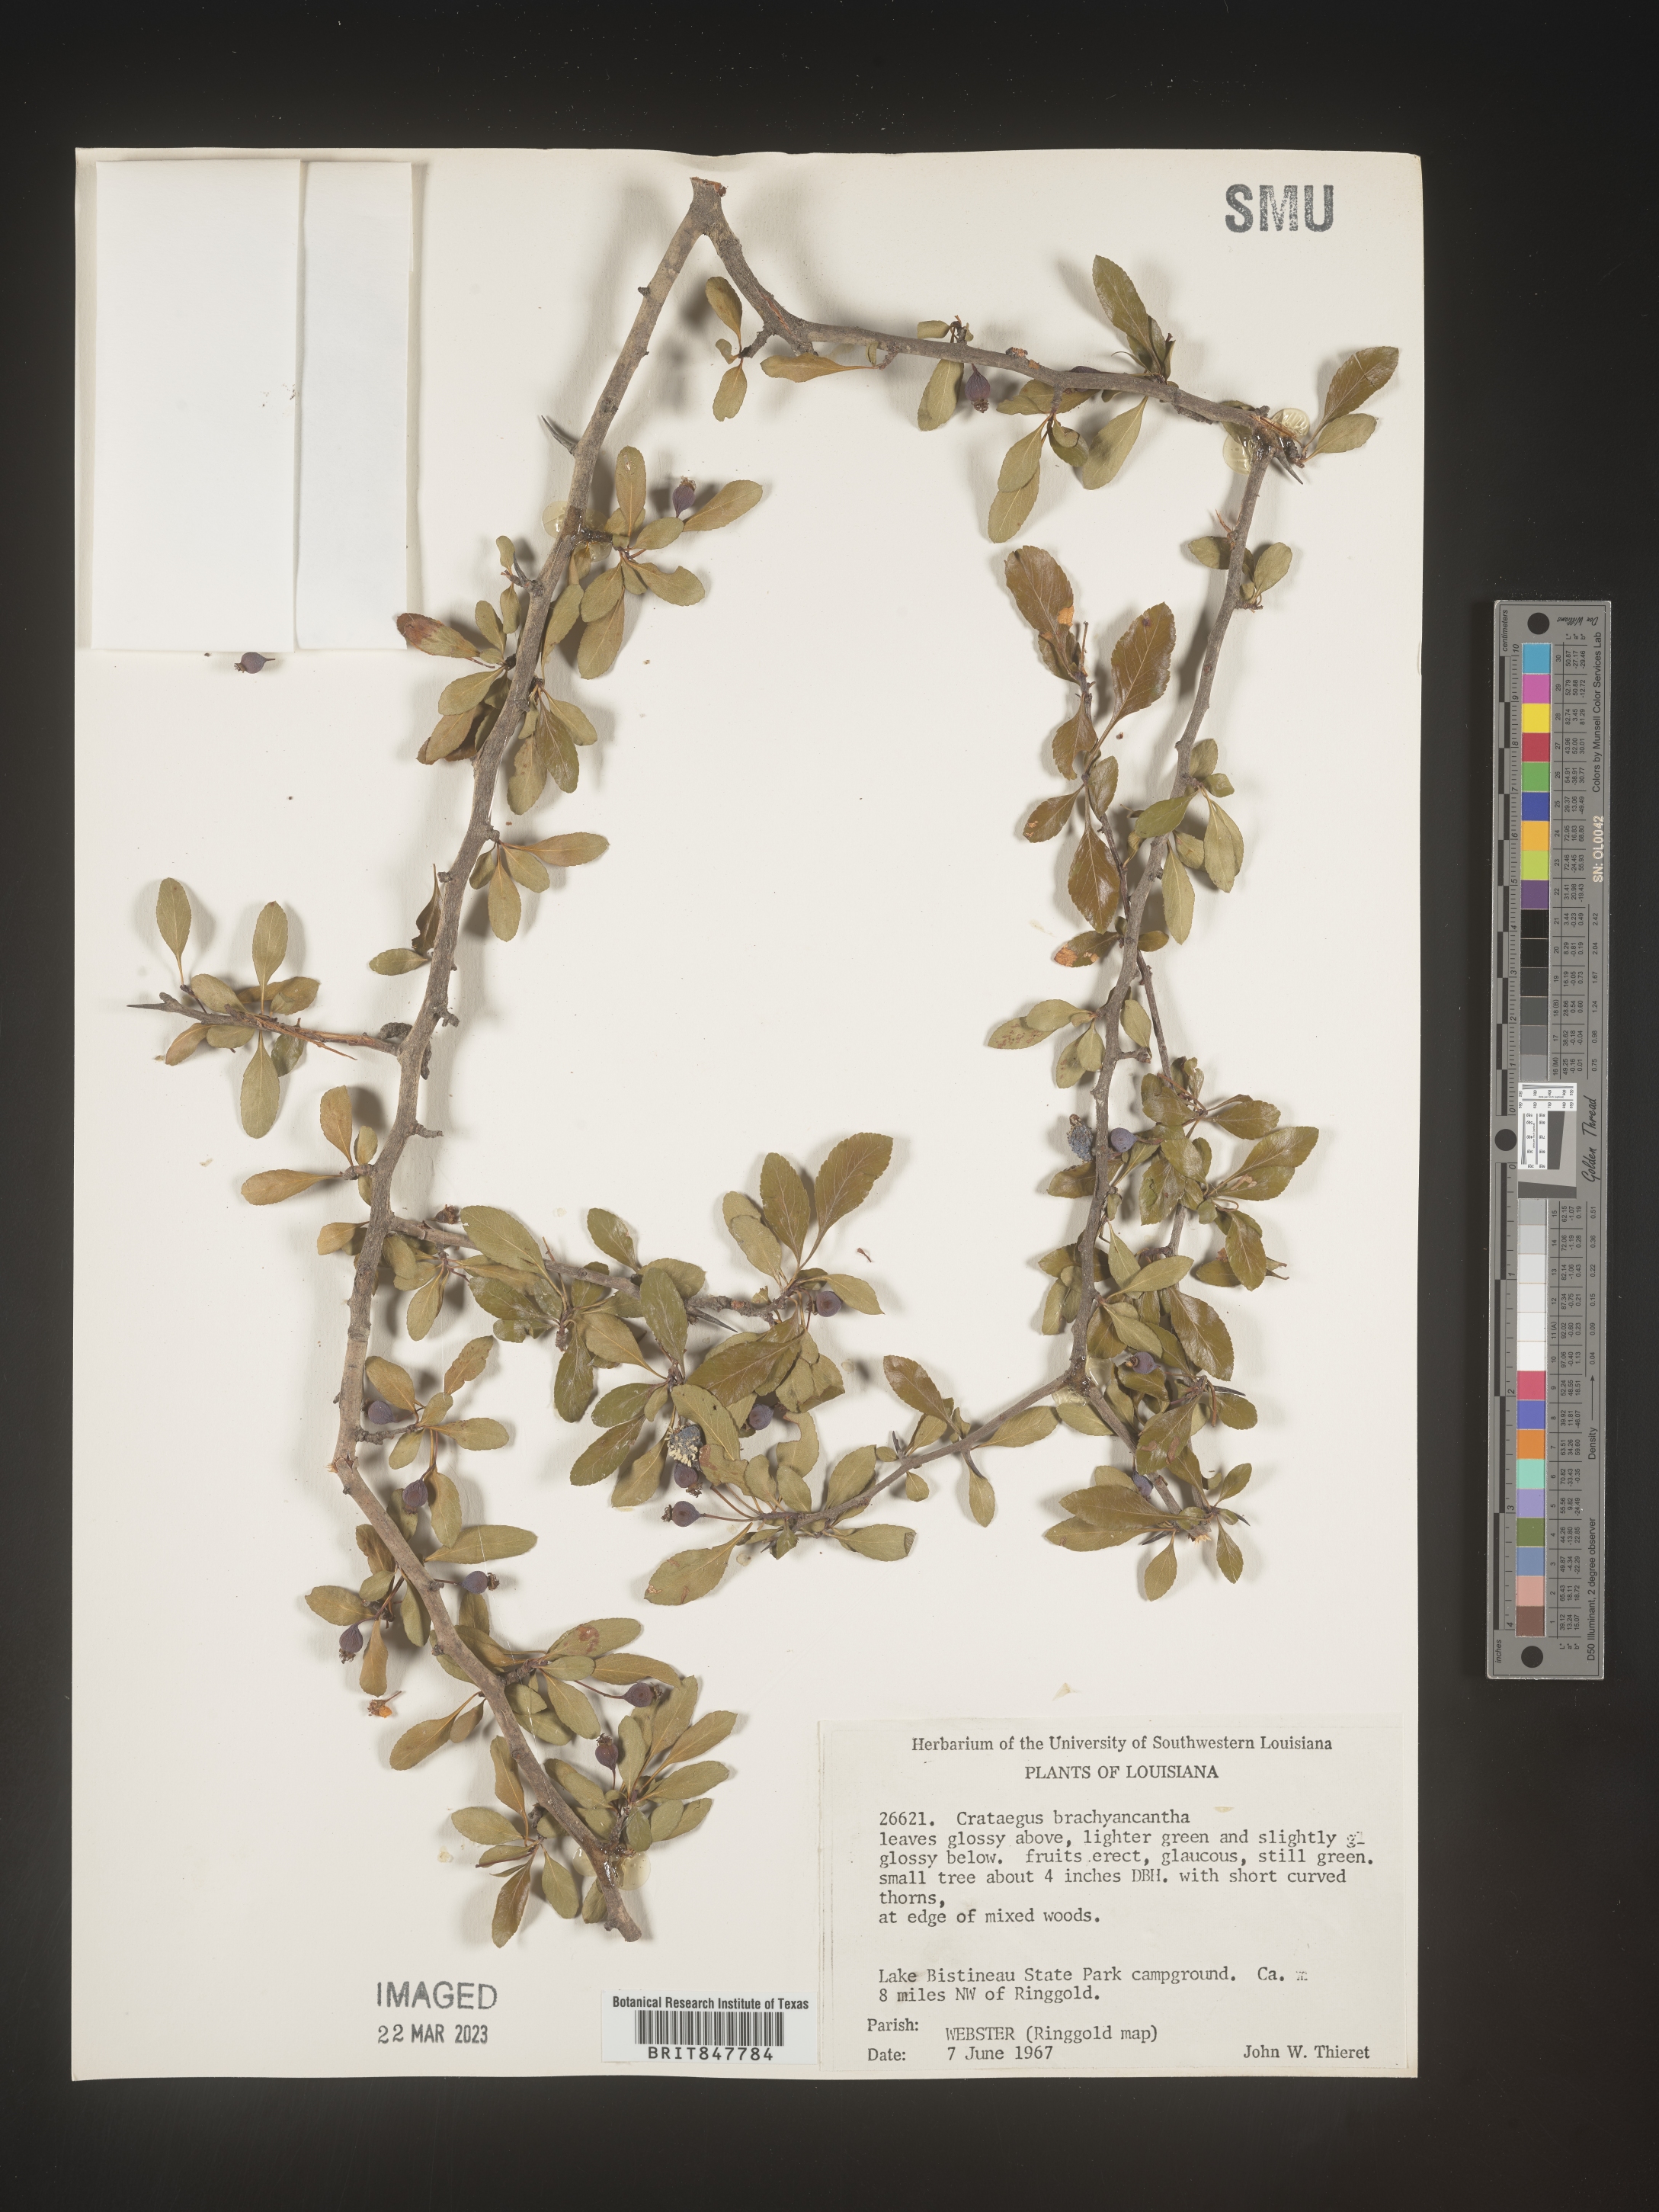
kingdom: Plantae
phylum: Tracheophyta
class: Magnoliopsida
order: Rosales
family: Rosaceae
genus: Crataegus
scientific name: Crataegus brachyacantha
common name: Blueberry-hawthorn
